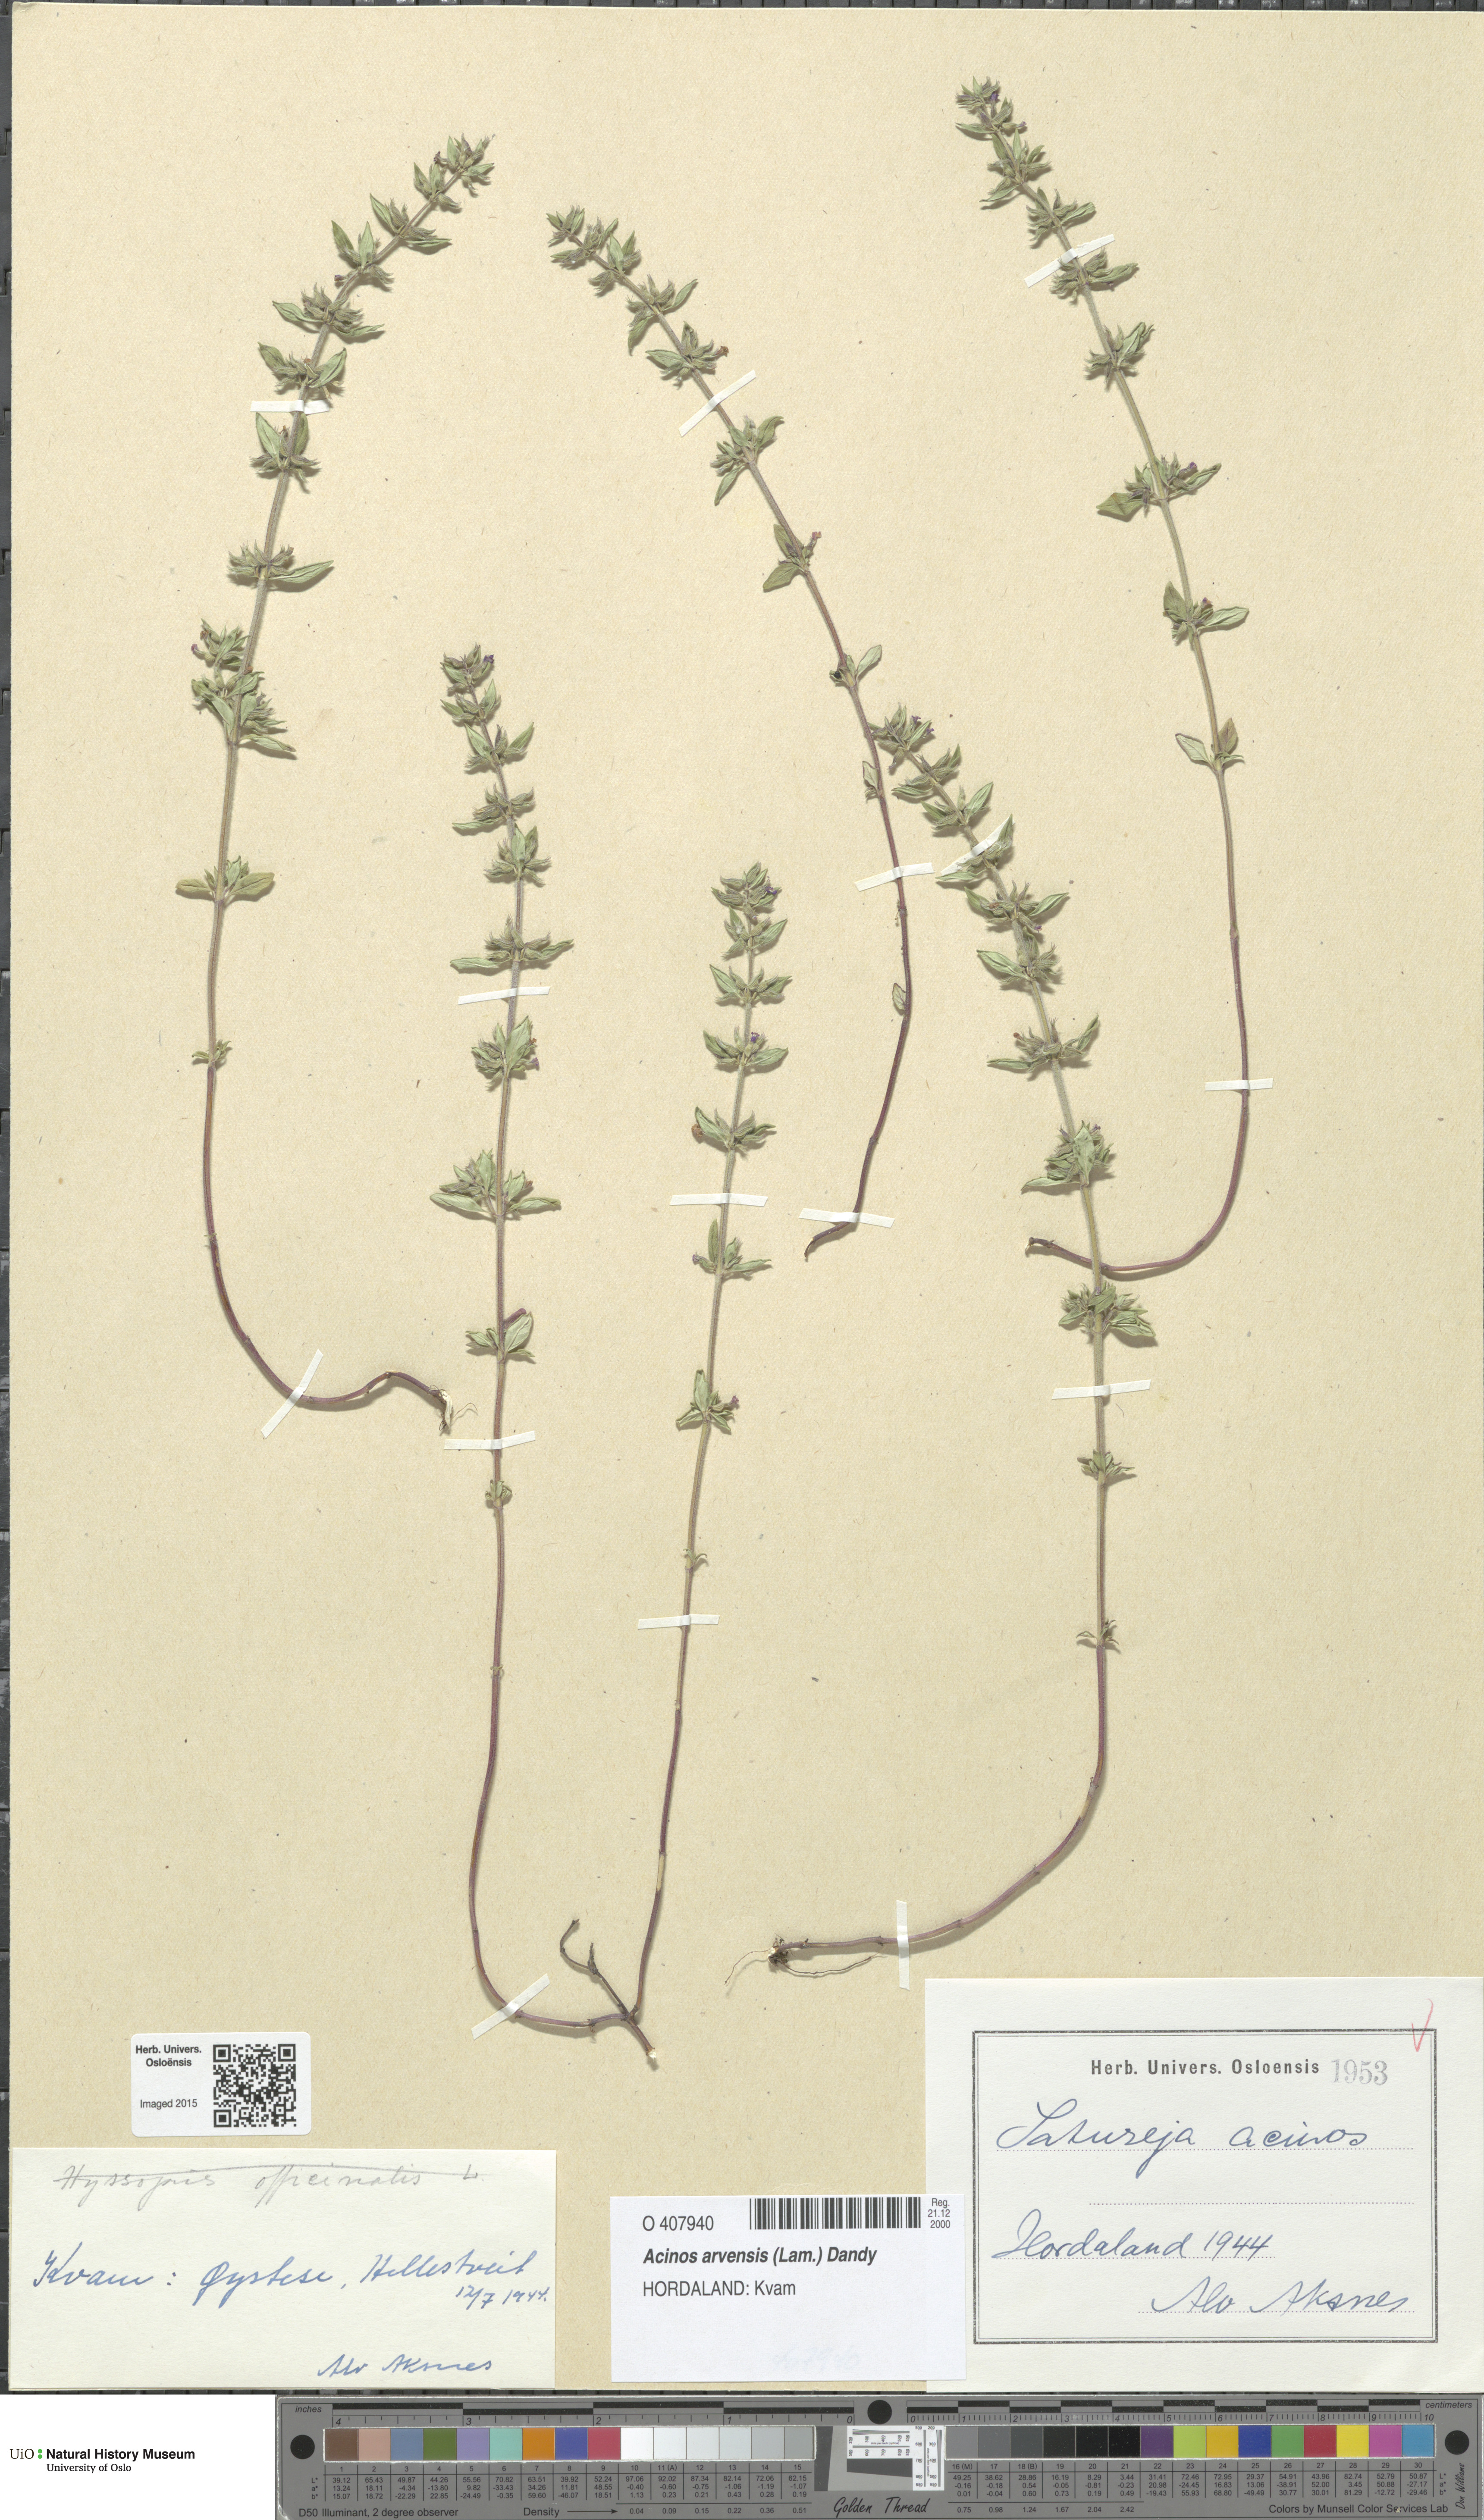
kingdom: Plantae
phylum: Tracheophyta
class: Magnoliopsida
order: Lamiales
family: Lamiaceae
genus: Clinopodium
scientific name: Clinopodium acinos
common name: Basil thyme
